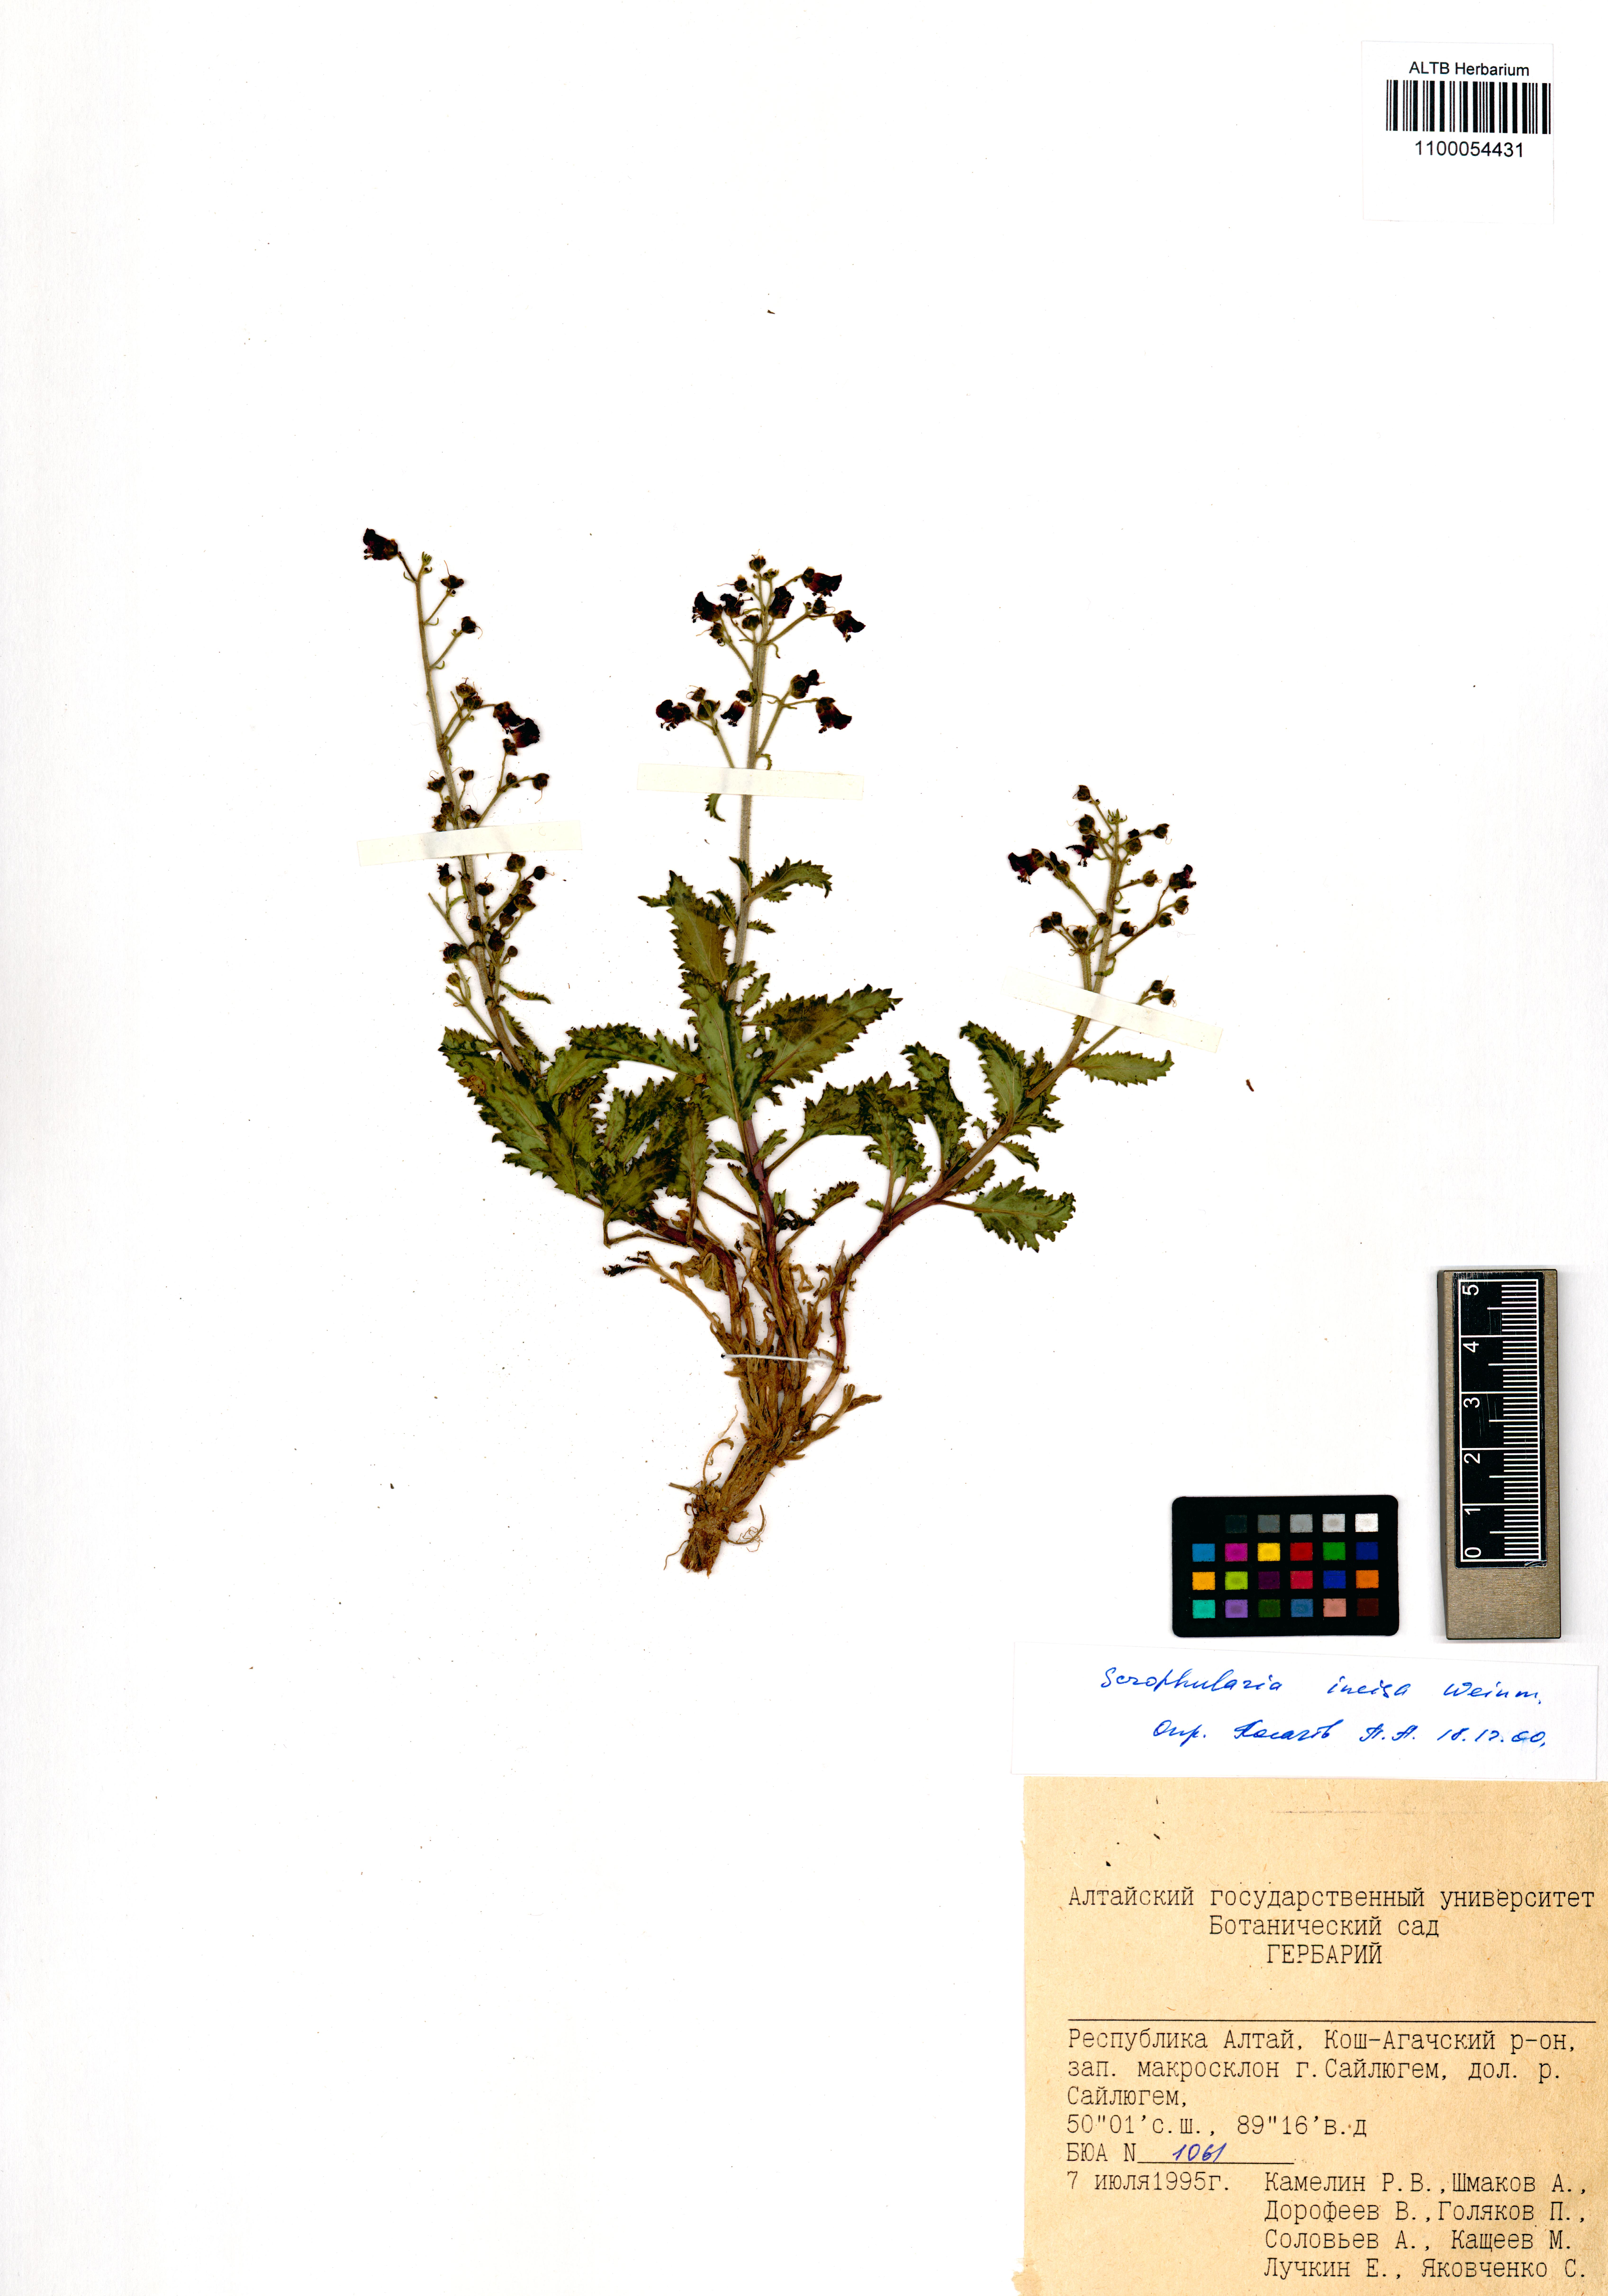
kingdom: Plantae
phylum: Tracheophyta
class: Magnoliopsida
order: Lamiales
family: Scrophulariaceae
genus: Scrophularia
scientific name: Scrophularia incisa
